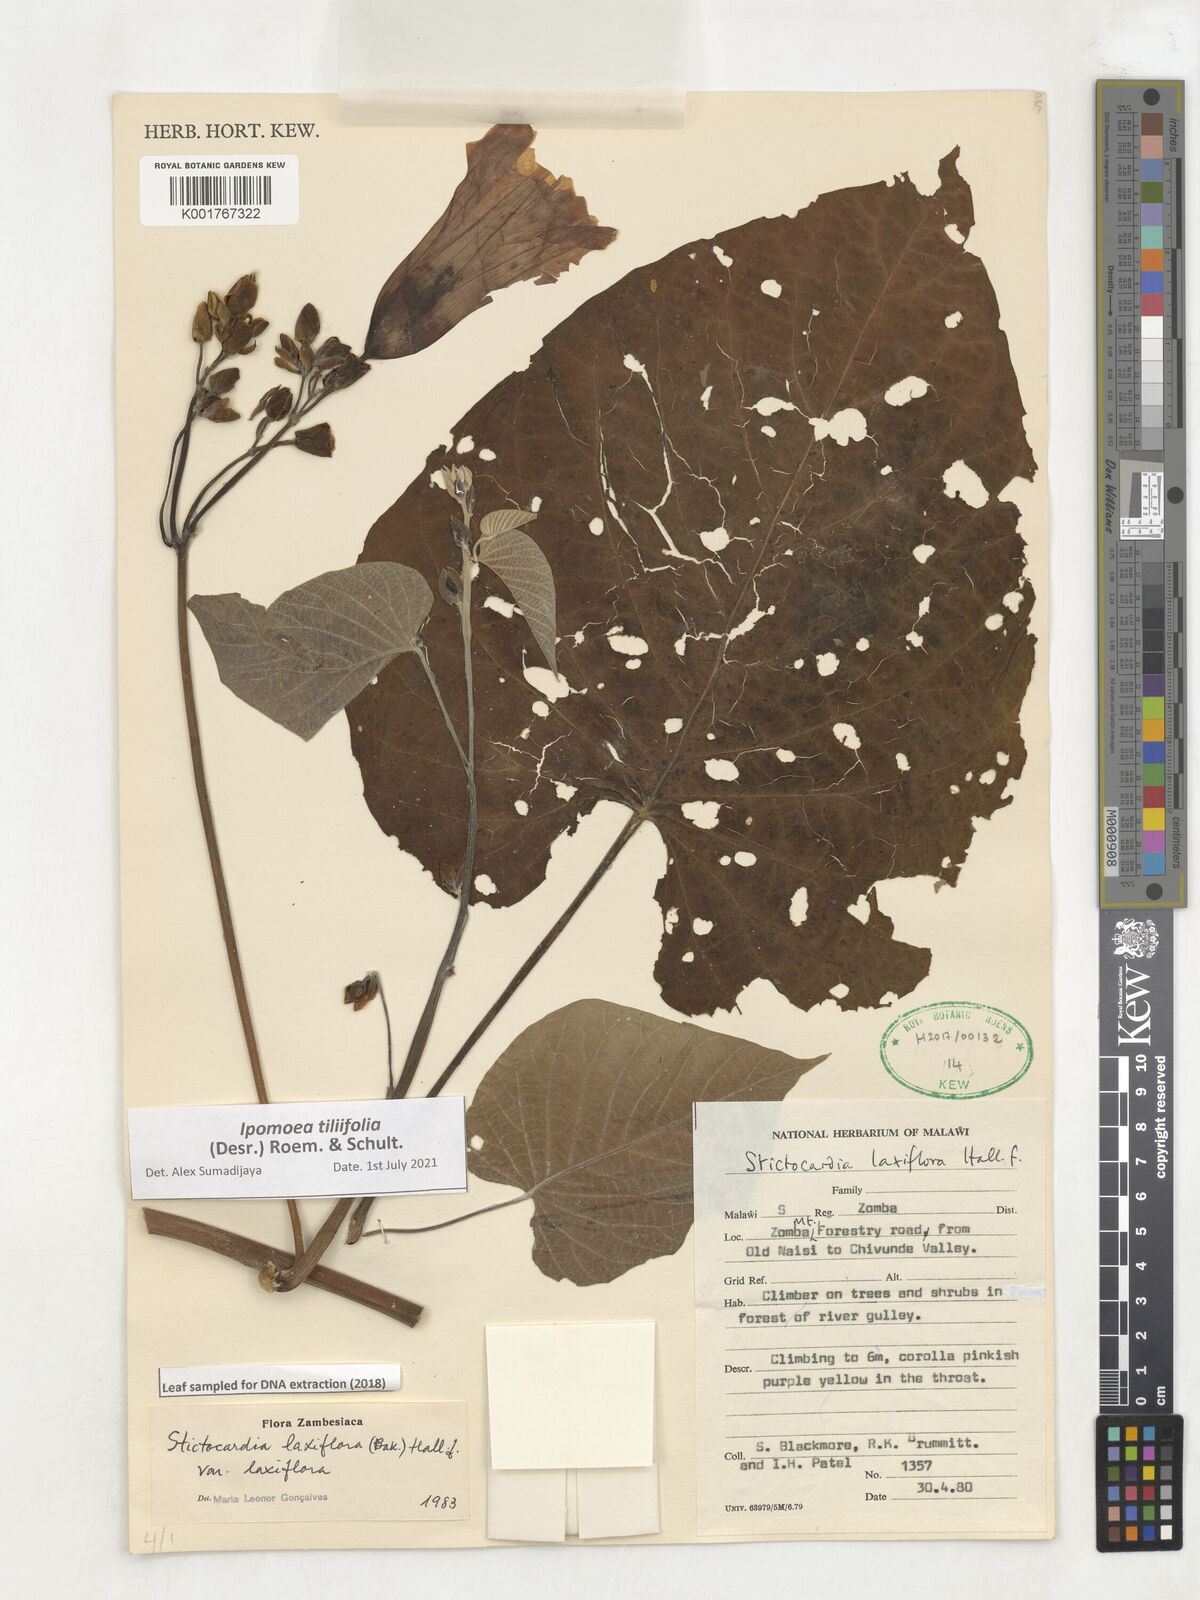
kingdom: Plantae
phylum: Tracheophyta
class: Magnoliopsida
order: Solanales
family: Convolvulaceae
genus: Stictocardia
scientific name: Stictocardia laxiflora
